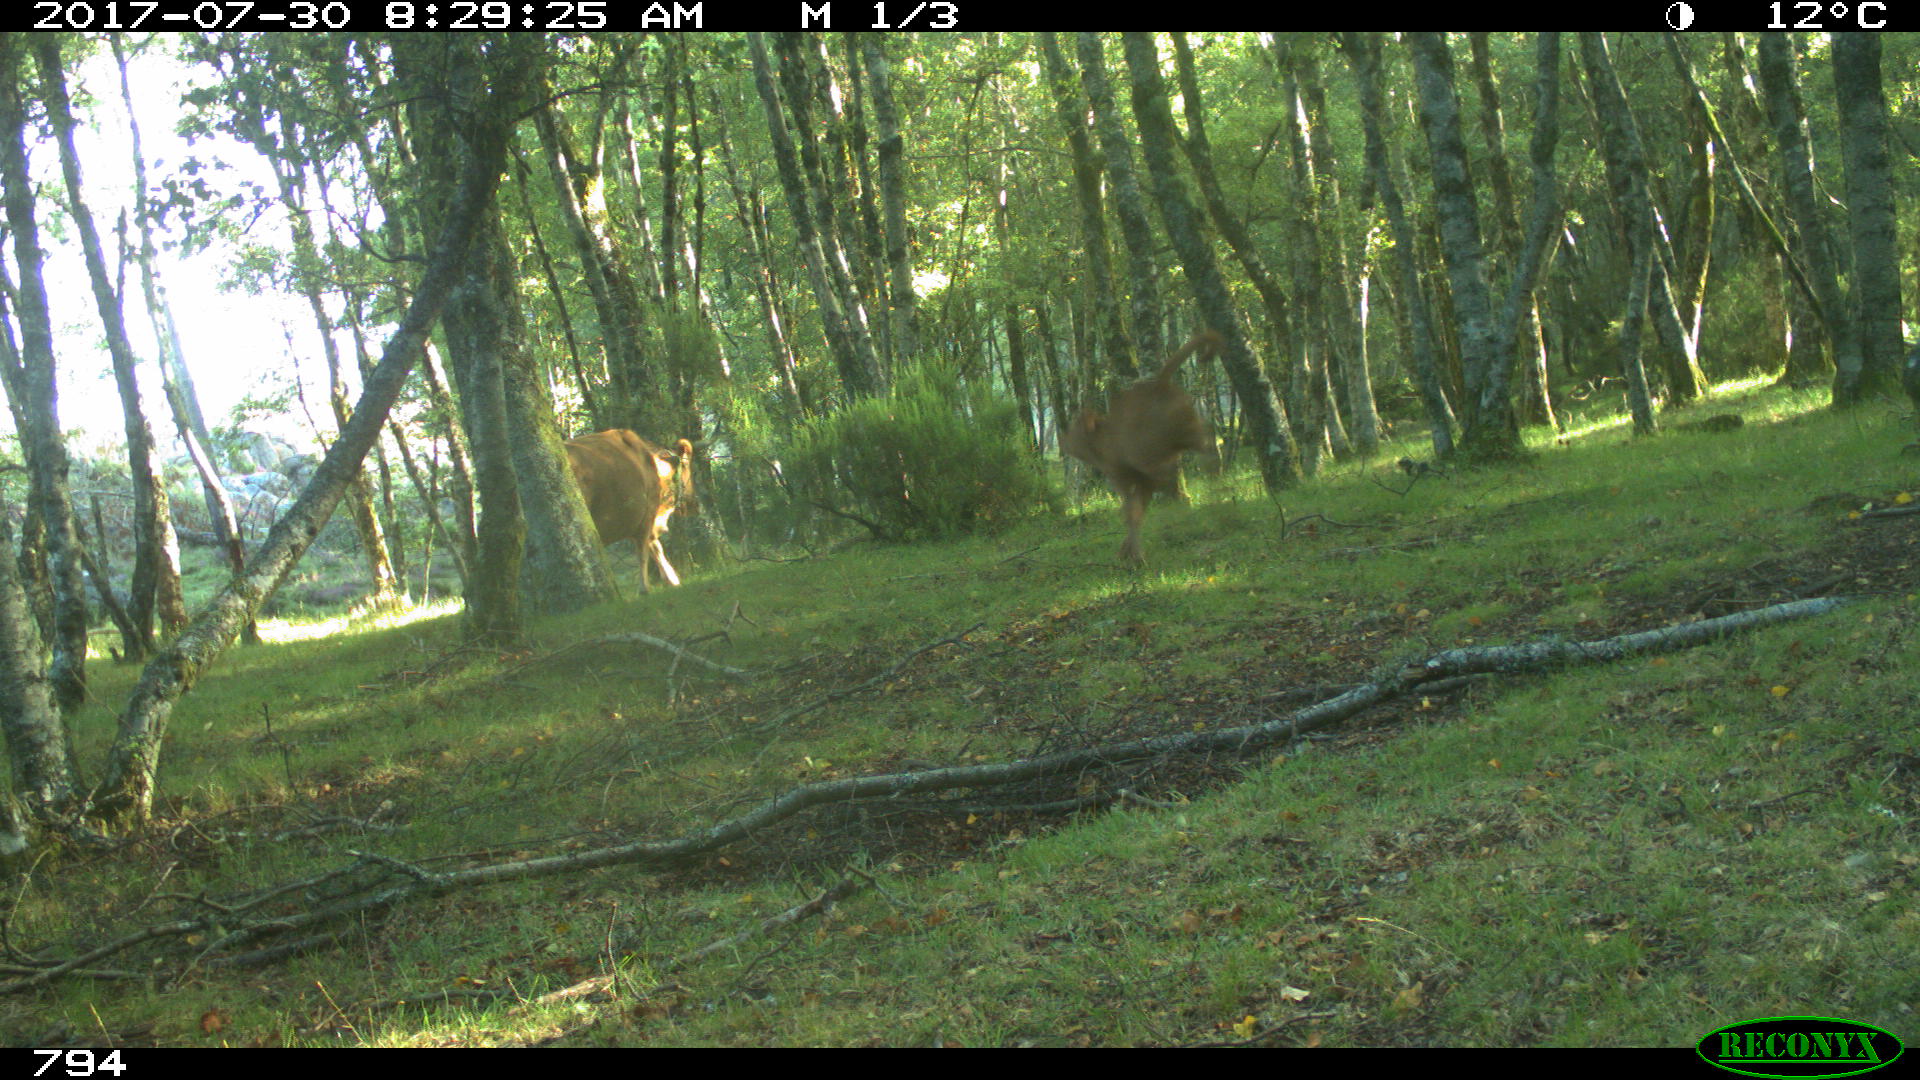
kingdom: Animalia
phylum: Chordata
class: Mammalia
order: Artiodactyla
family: Bovidae
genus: Bos
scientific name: Bos taurus
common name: Domesticated cattle
